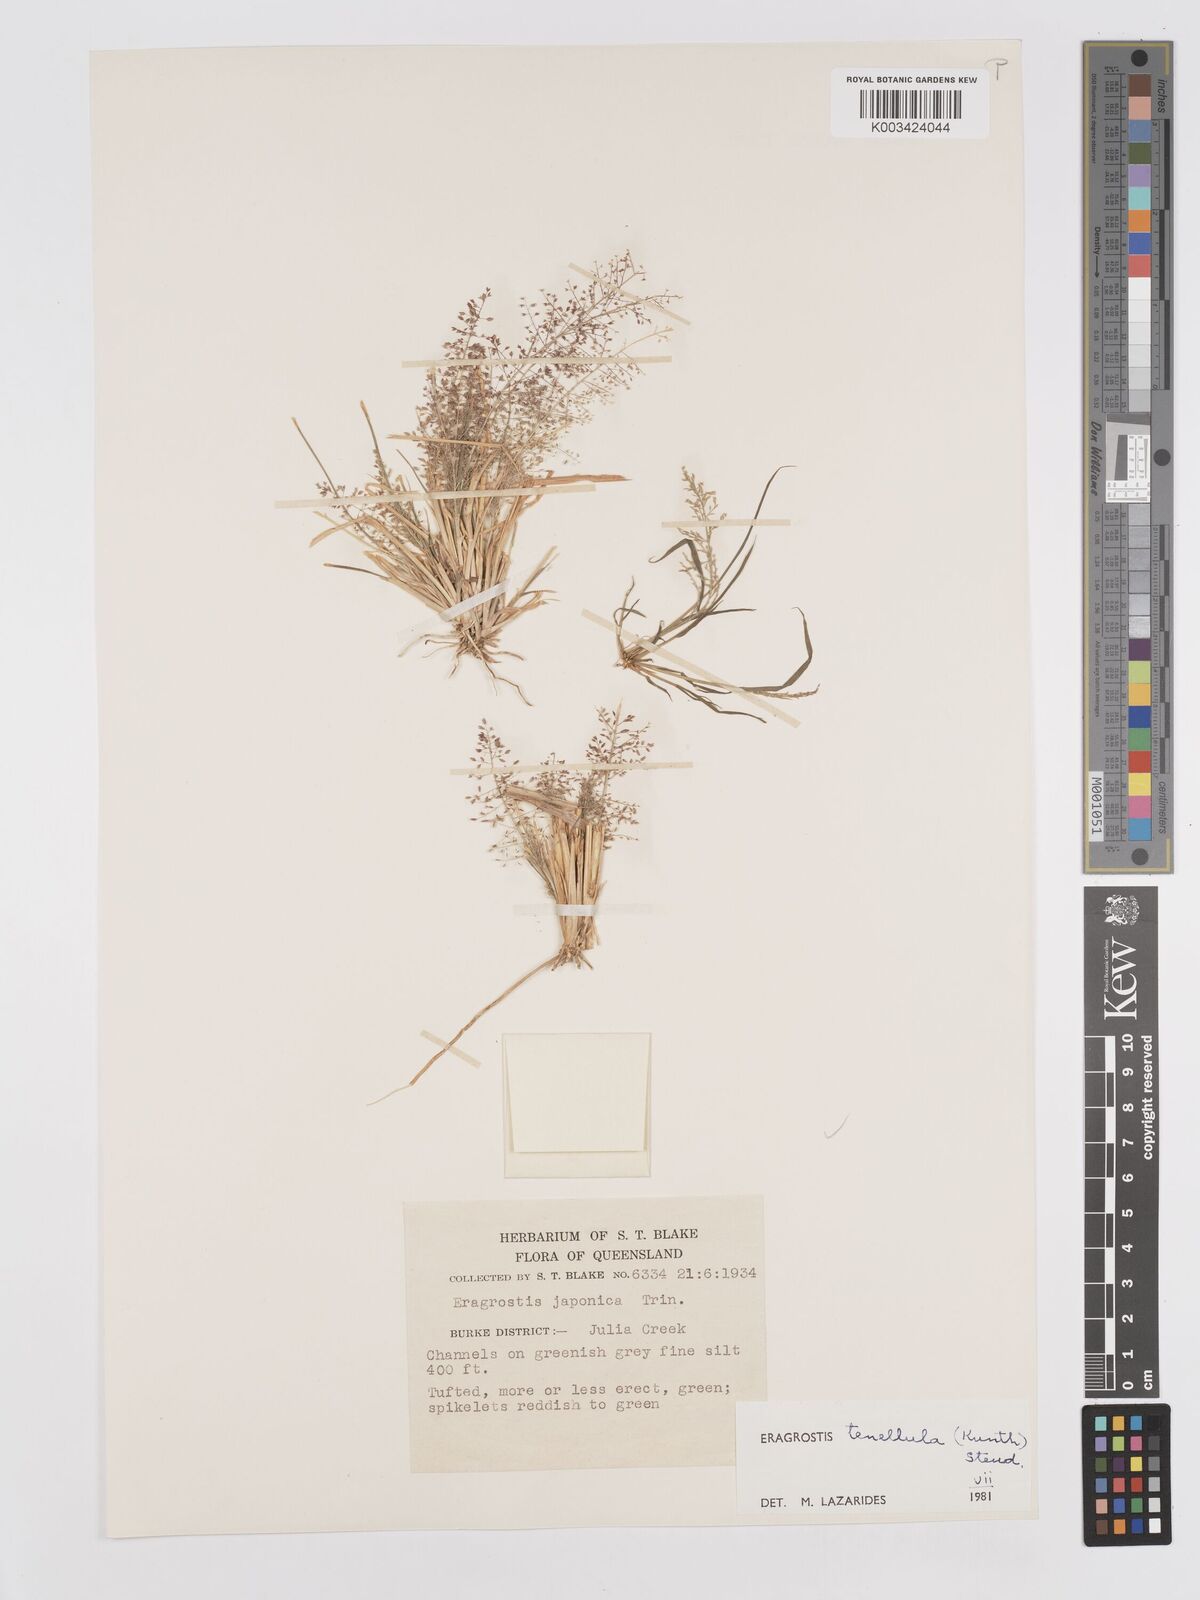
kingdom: Plantae
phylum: Tracheophyta
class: Liliopsida
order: Poales
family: Poaceae
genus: Eragrostis
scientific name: Eragrostis tenellula
